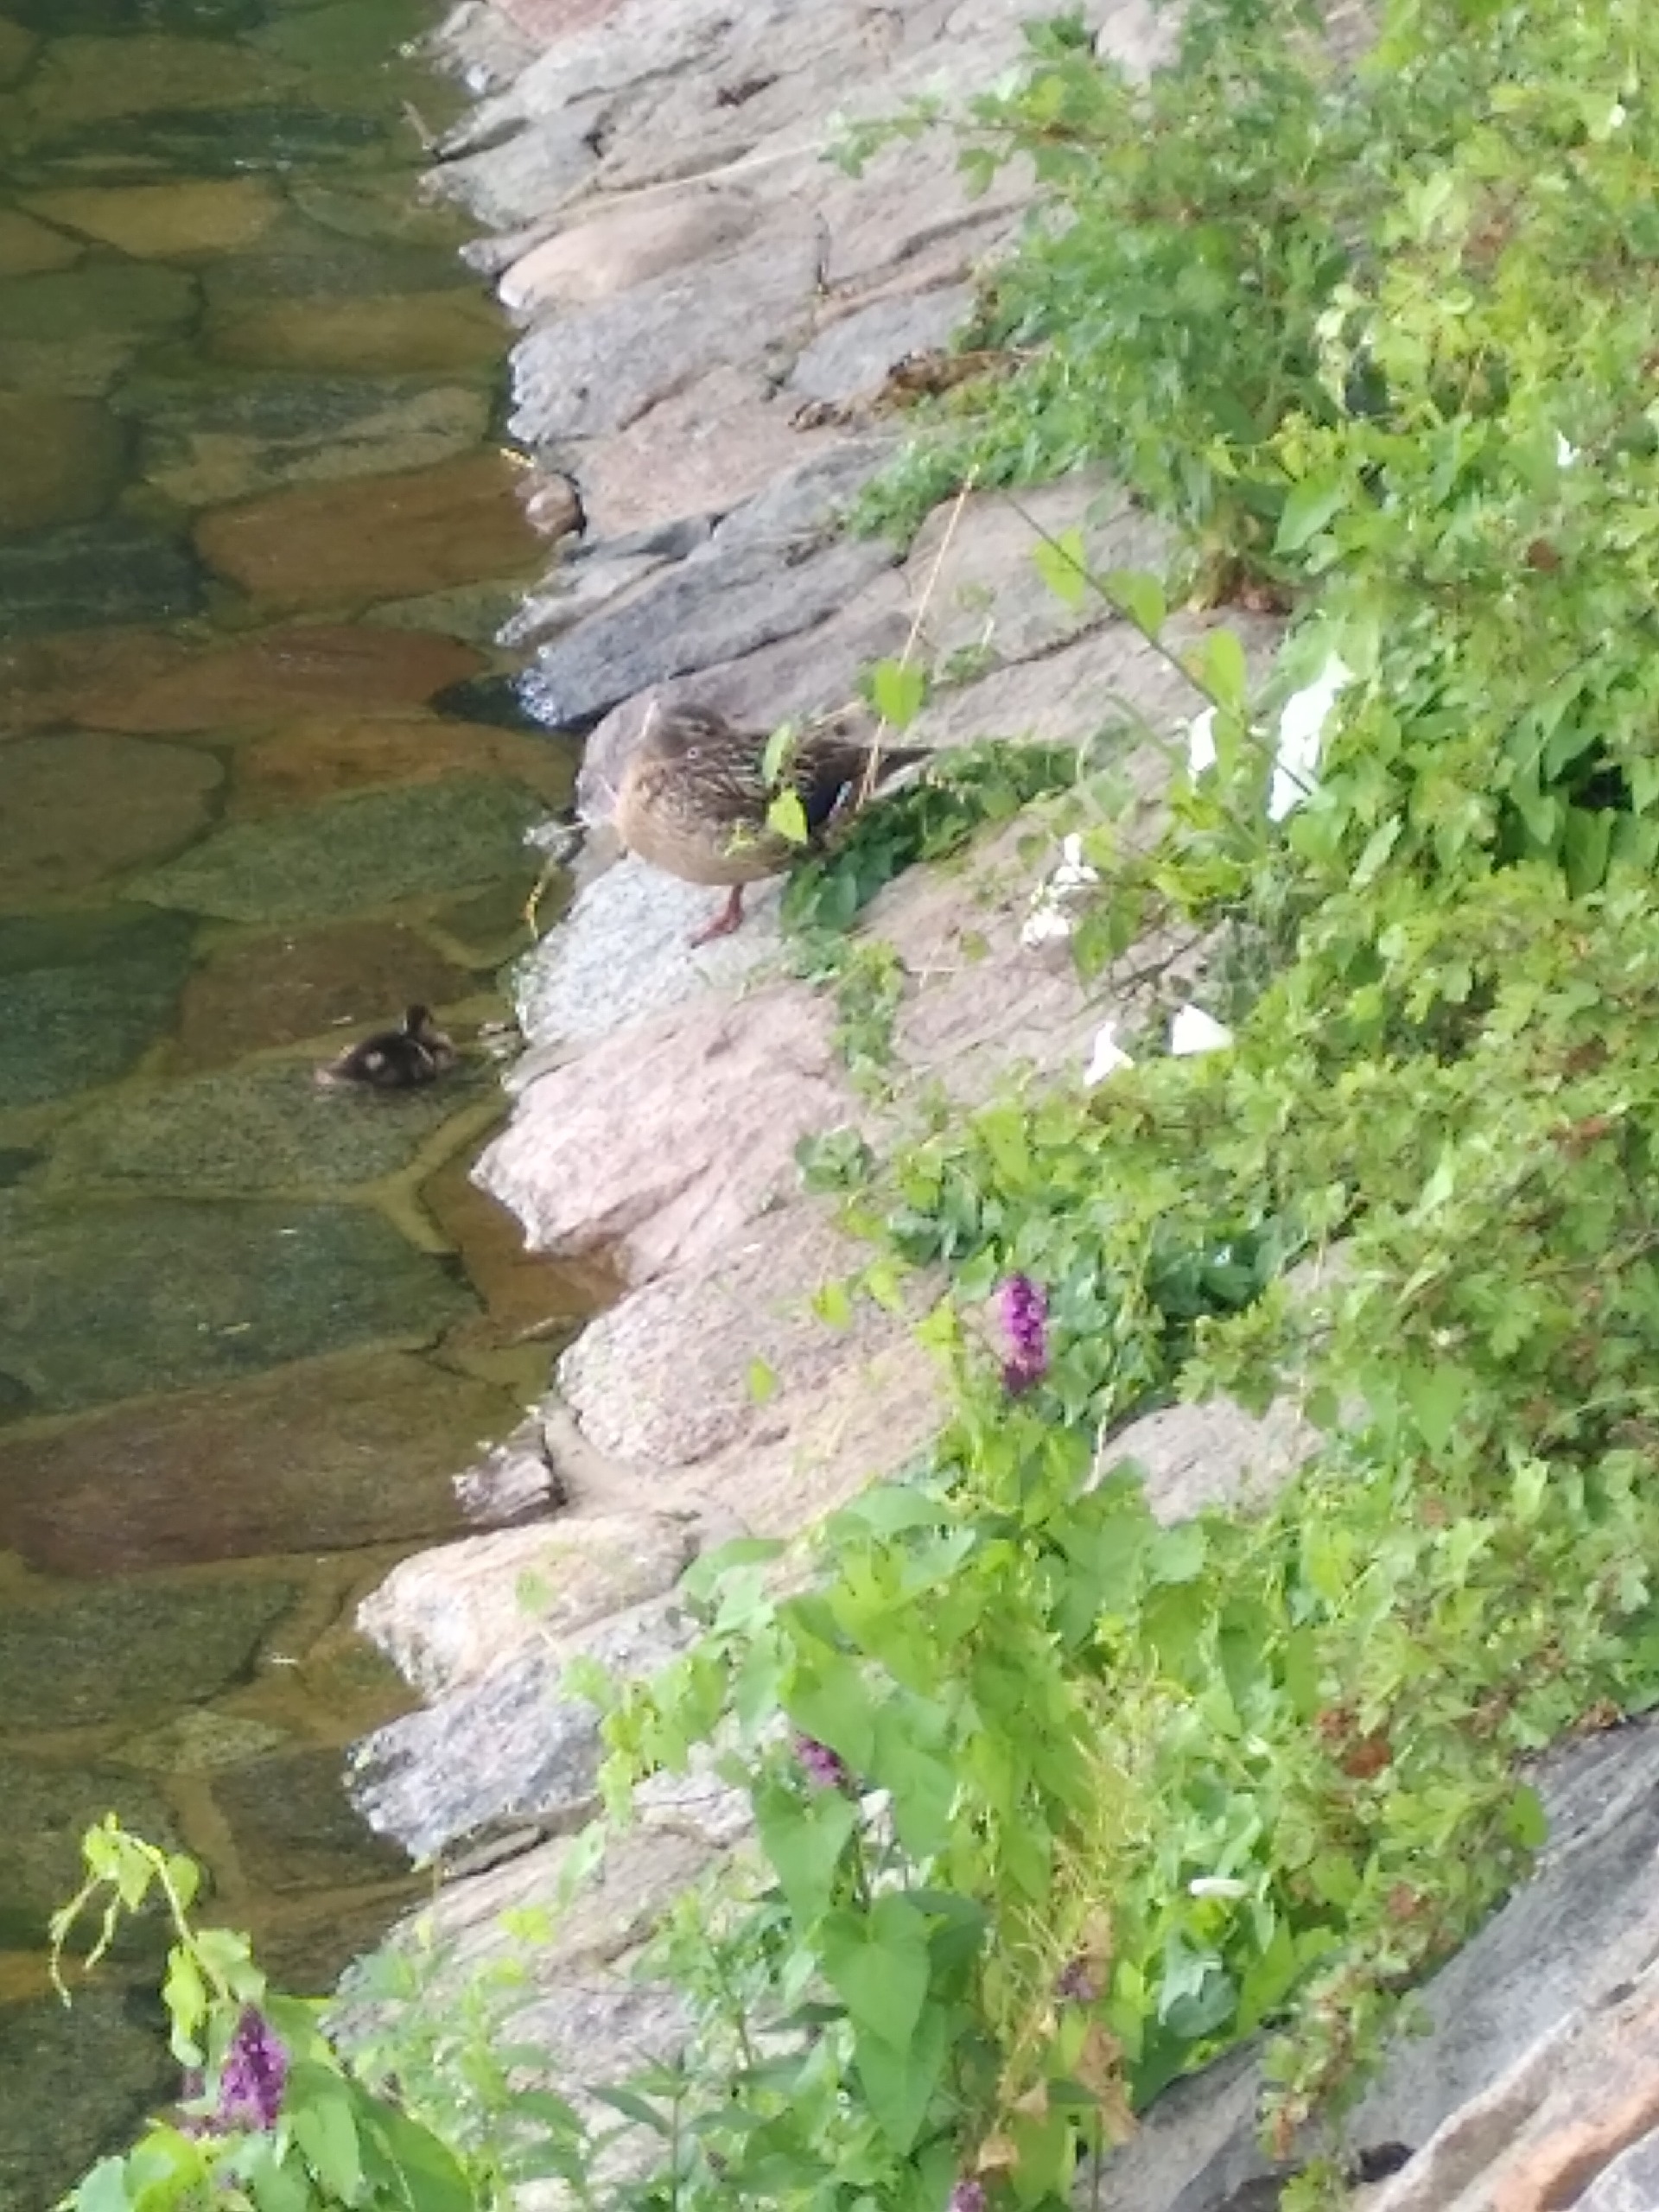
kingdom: Animalia
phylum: Chordata
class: Aves
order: Anseriformes
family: Anatidae
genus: Anas
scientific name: Anas platyrhynchos
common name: Gråand
